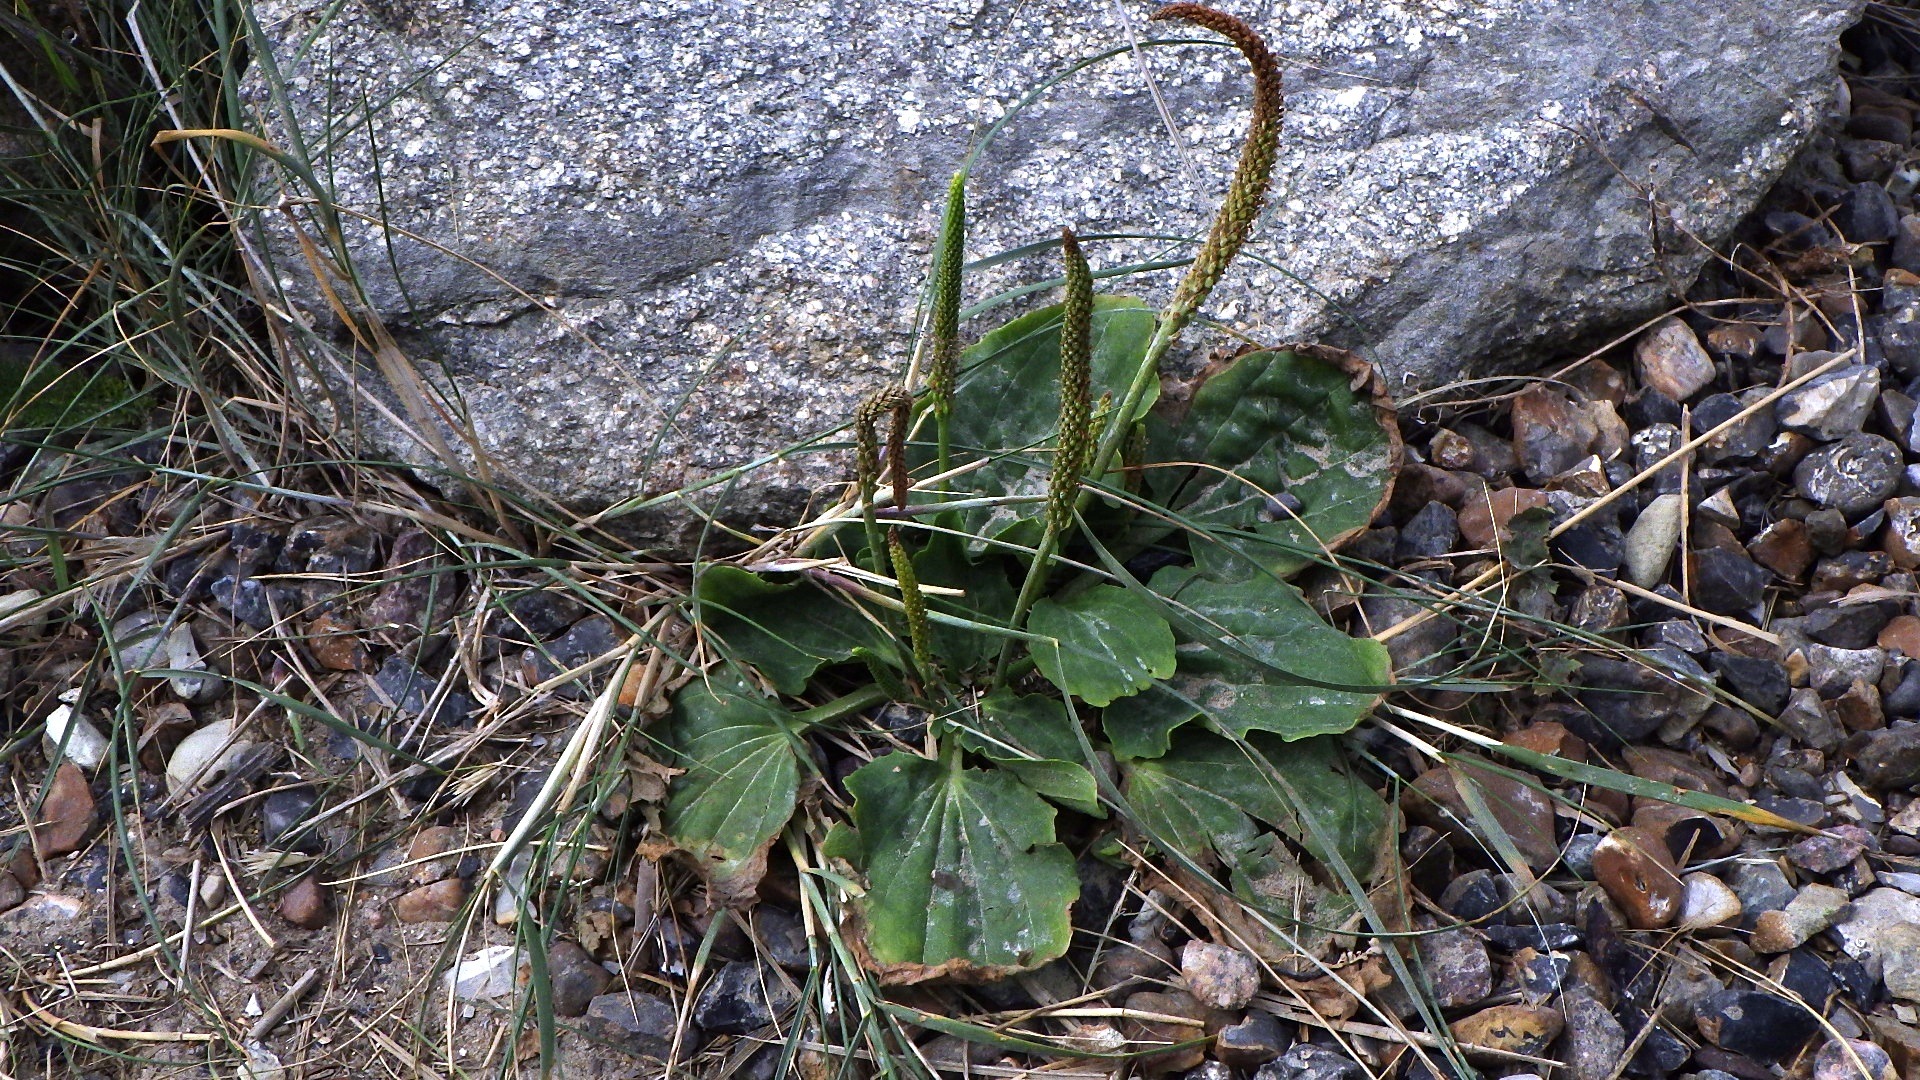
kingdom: Plantae
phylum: Tracheophyta
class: Magnoliopsida
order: Lamiales
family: Plantaginaceae
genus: Plantago
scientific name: Plantago major
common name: Glat vejbred
